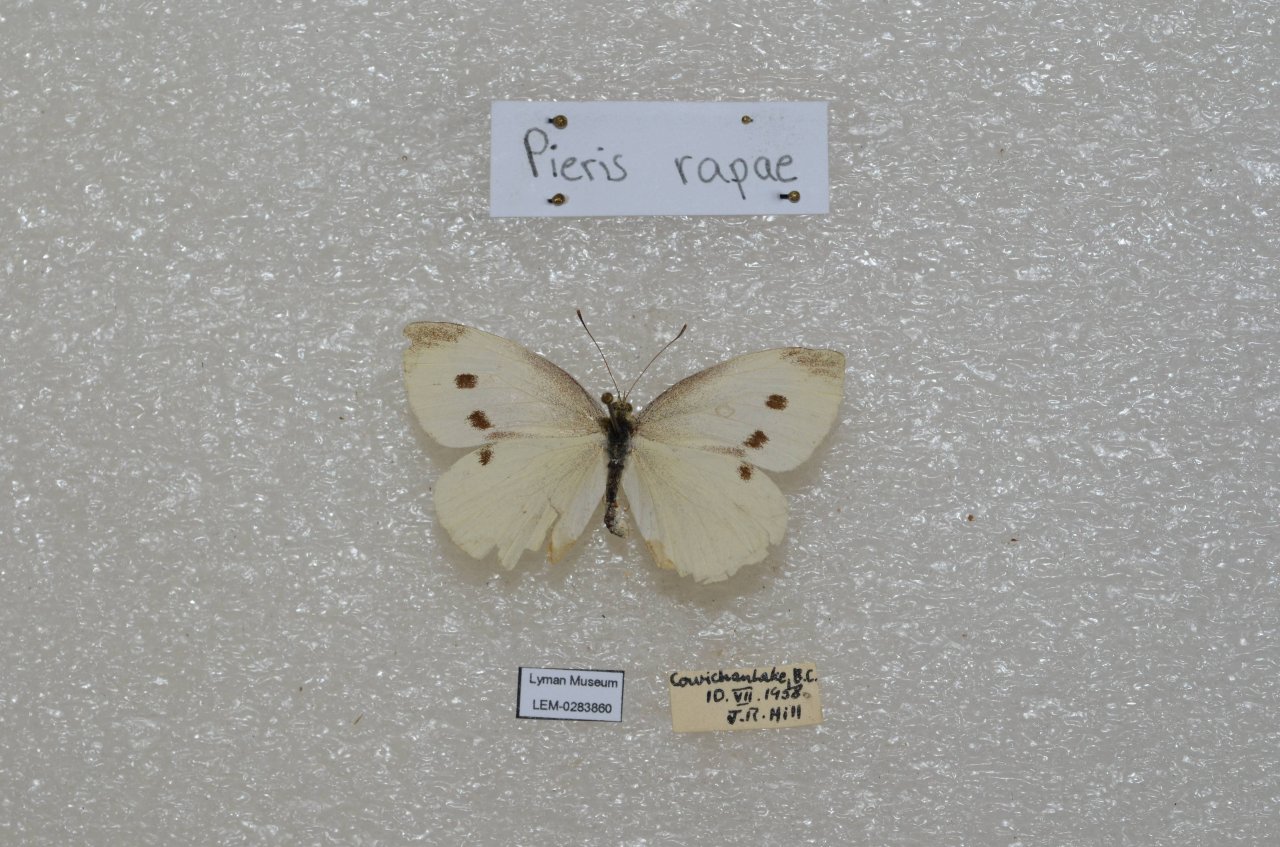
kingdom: Animalia
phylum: Arthropoda
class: Insecta
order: Lepidoptera
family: Pieridae
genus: Pieris
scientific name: Pieris rapae
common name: Cabbage White
